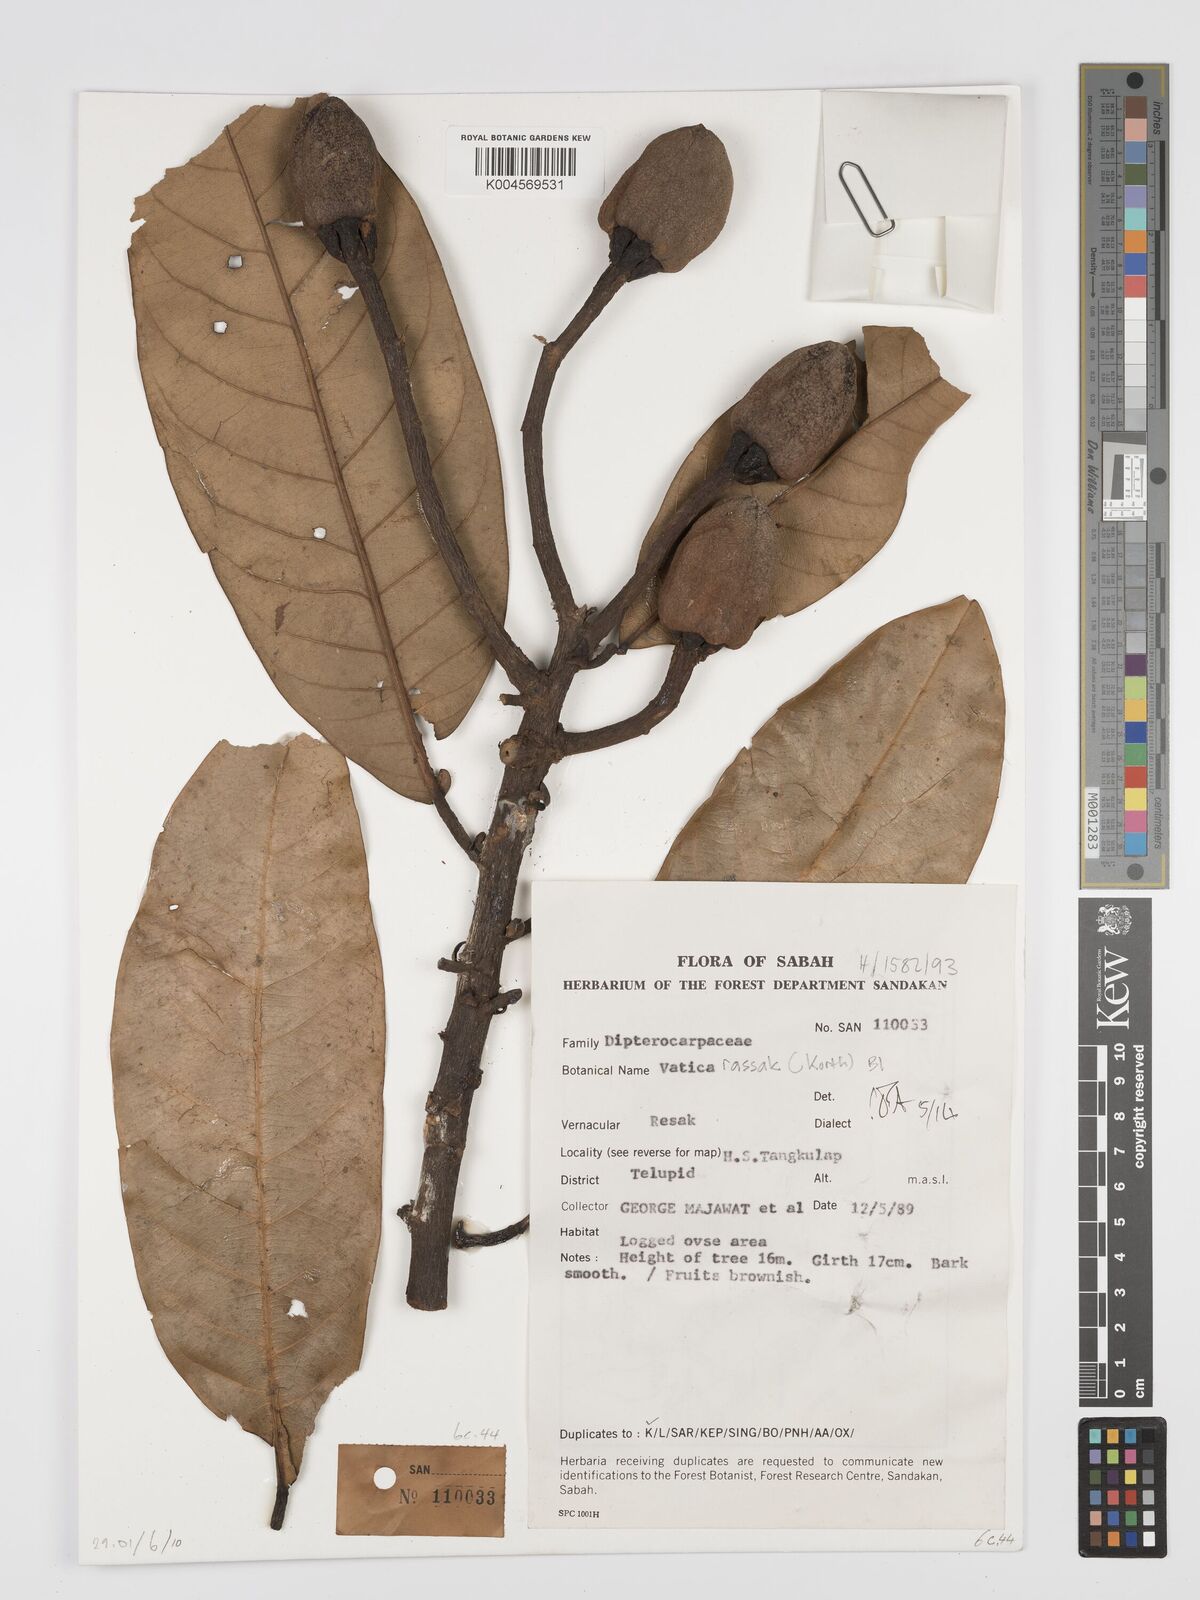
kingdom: Plantae
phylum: Tracheophyta
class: Magnoliopsida
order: Malvales
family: Dipterocarpaceae
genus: Vatica
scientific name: Vatica rassak
